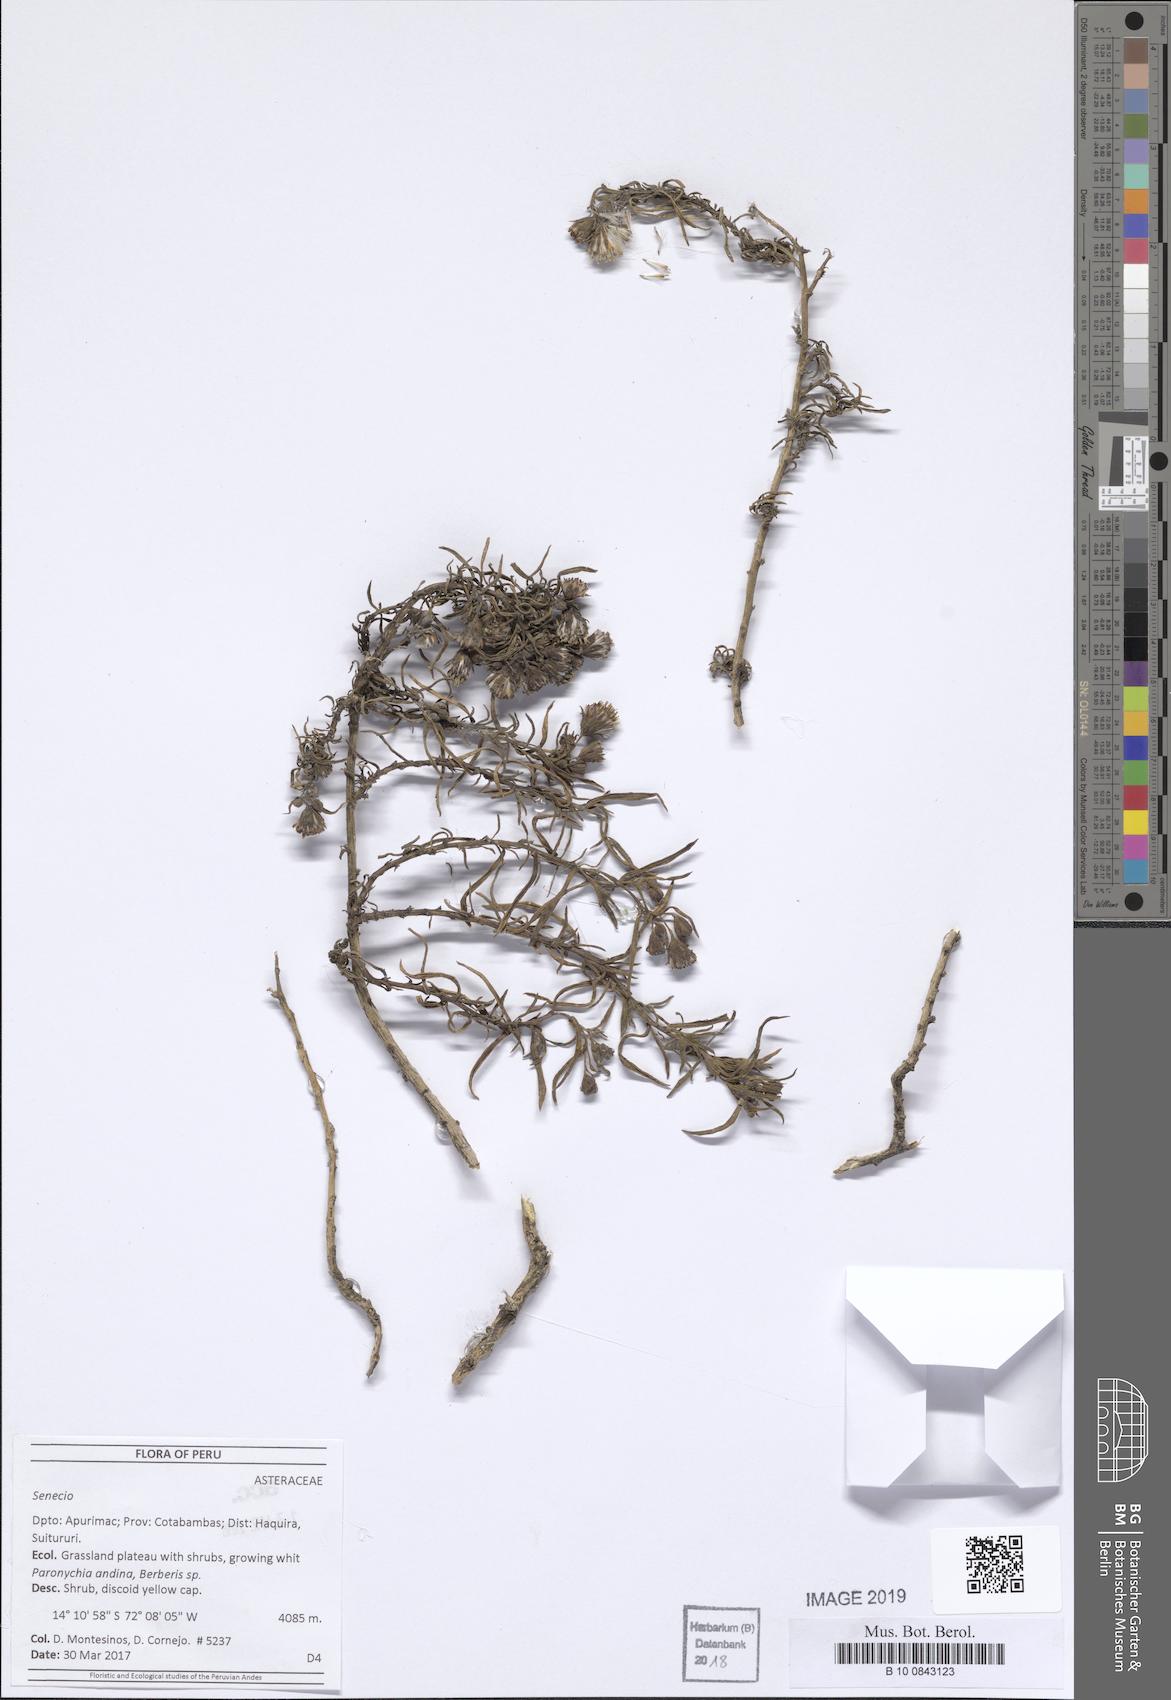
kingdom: Plantae
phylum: Tracheophyta
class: Magnoliopsida
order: Asterales
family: Asteraceae
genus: Senecio
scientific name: Senecio mathewsii
